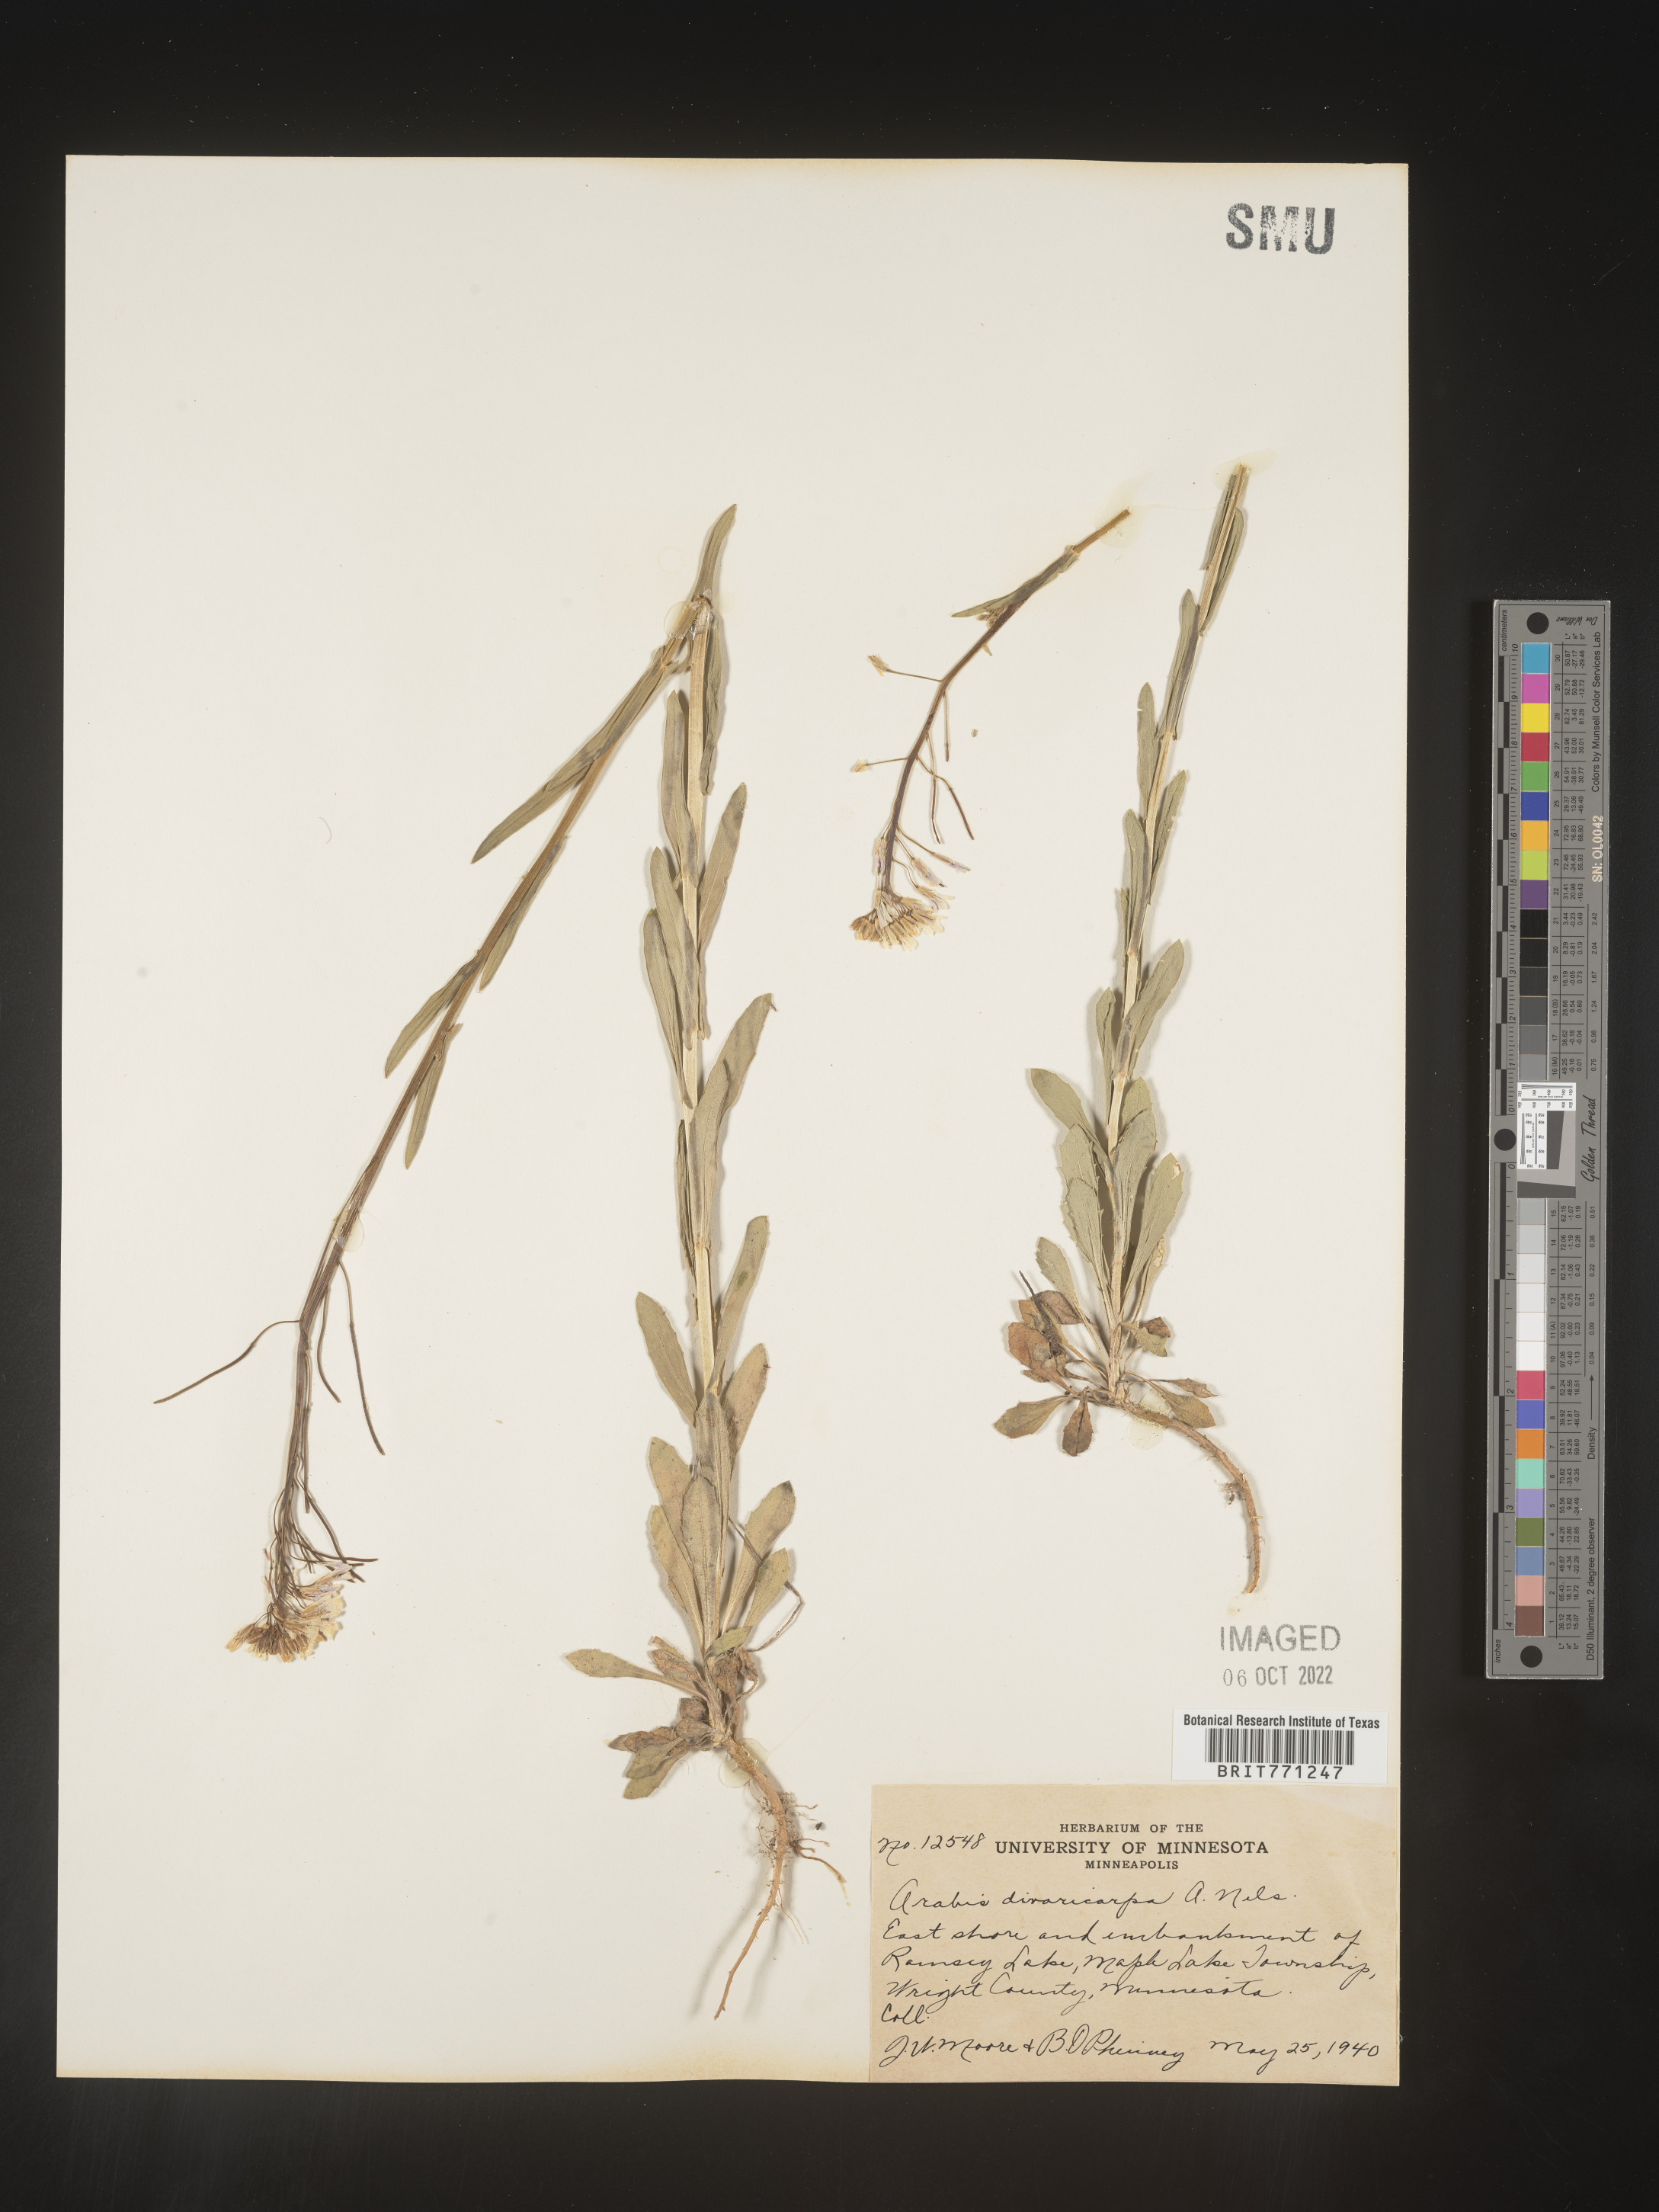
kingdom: Plantae
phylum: Tracheophyta
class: Magnoliopsida
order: Brassicales
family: Brassicaceae
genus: Boechera
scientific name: Boechera divaricarpa
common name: Divaricate rockcress
